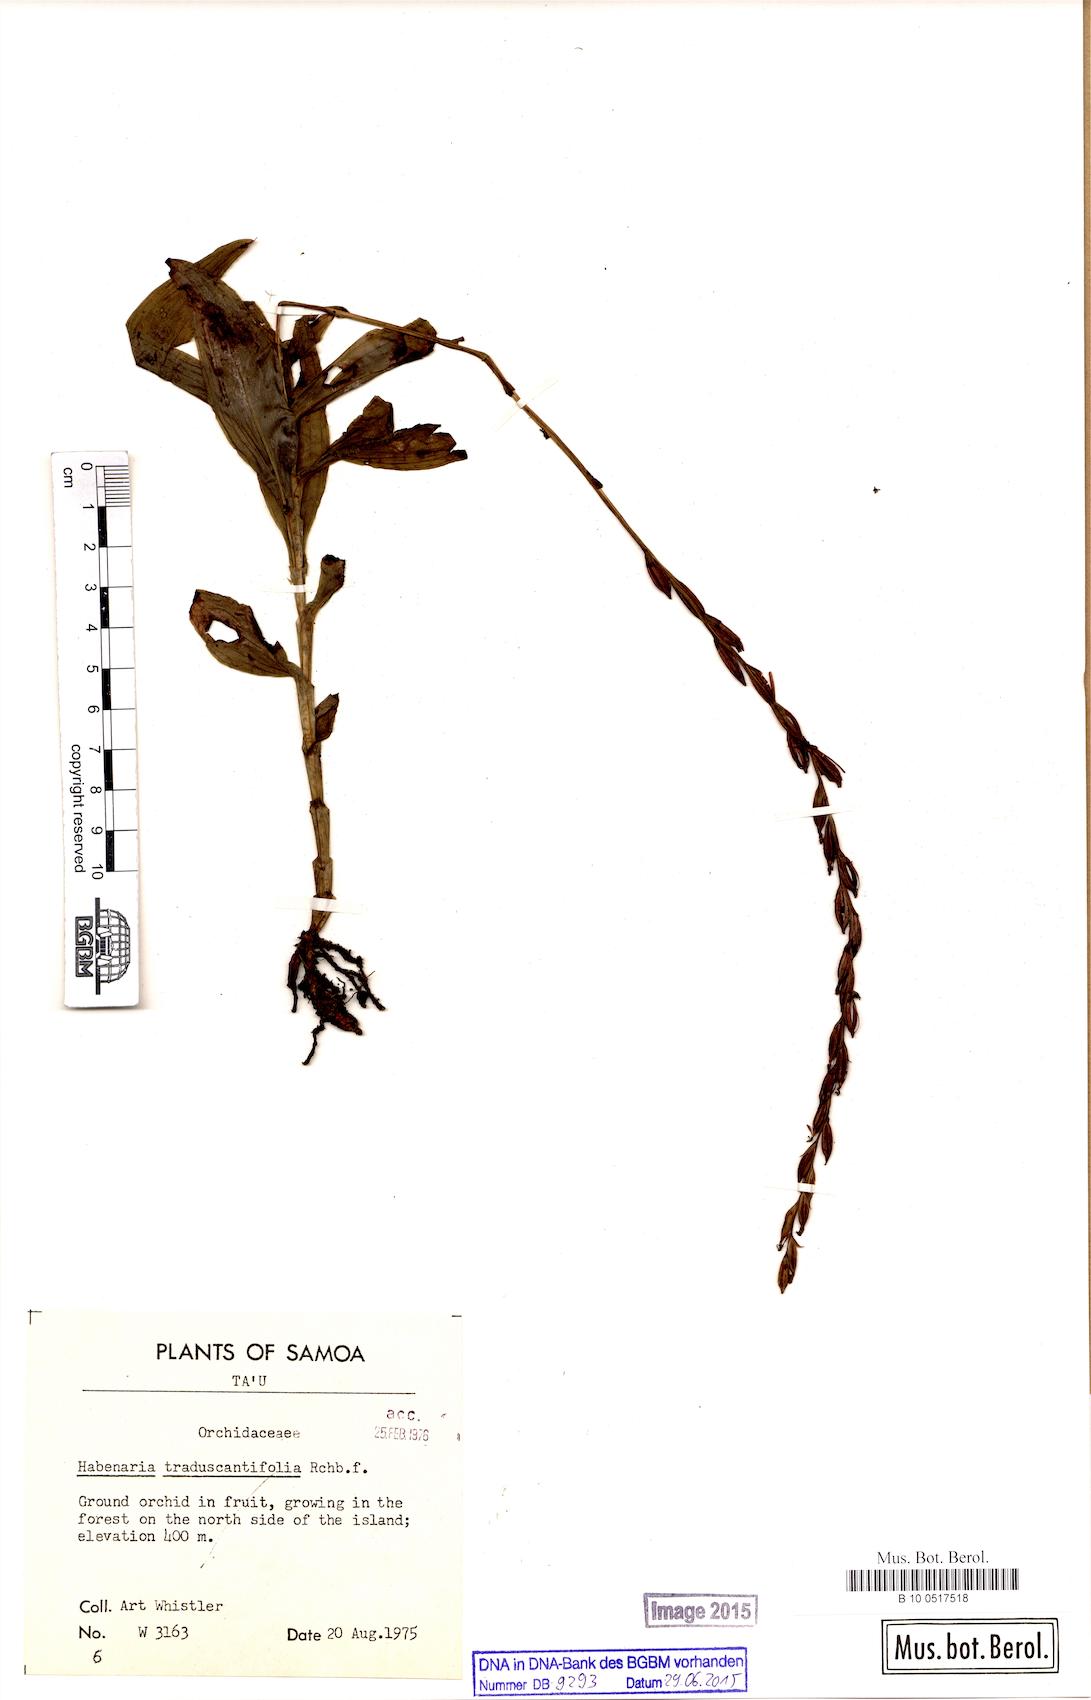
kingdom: Plantae
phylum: Tracheophyta
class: Liliopsida
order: Asparagales
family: Orchidaceae
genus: Peristylus
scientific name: Peristylus tradescantiifolius
